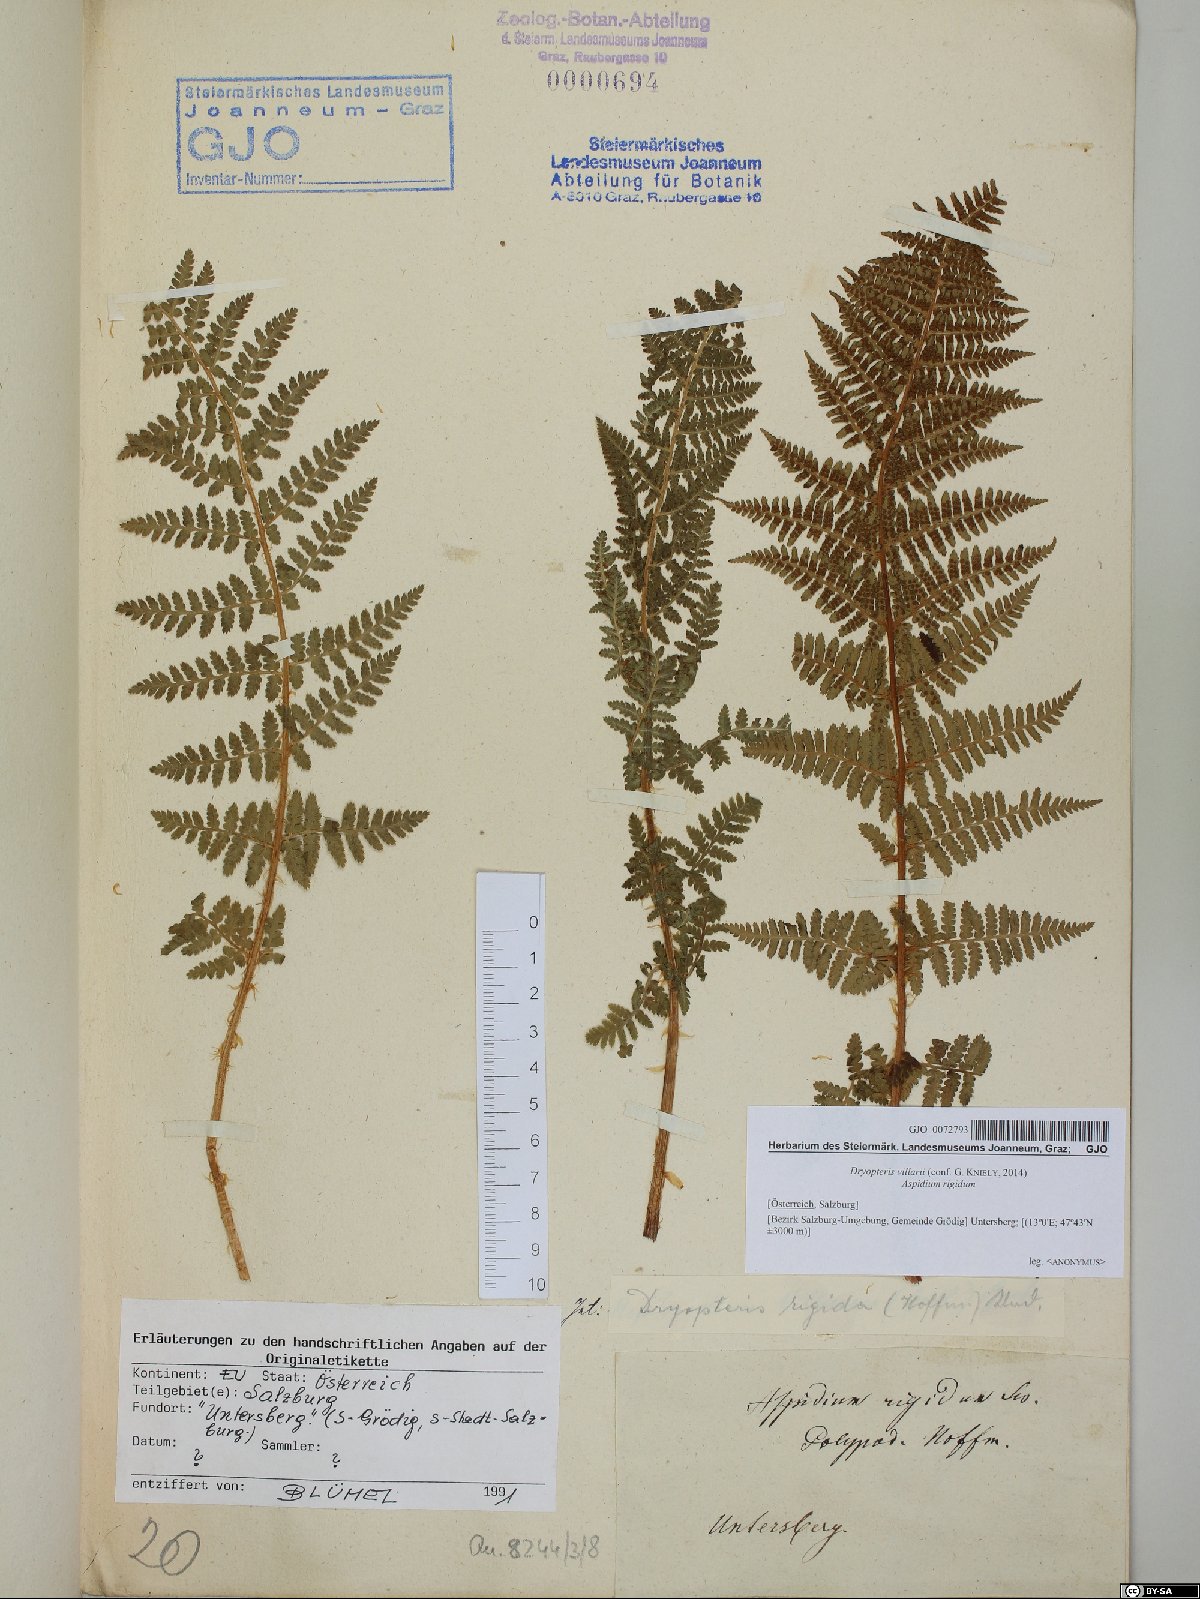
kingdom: Plantae
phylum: Tracheophyta
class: Polypodiopsida
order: Polypodiales
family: Dryopteridaceae
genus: Dryopteris
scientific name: Dryopteris villarii
